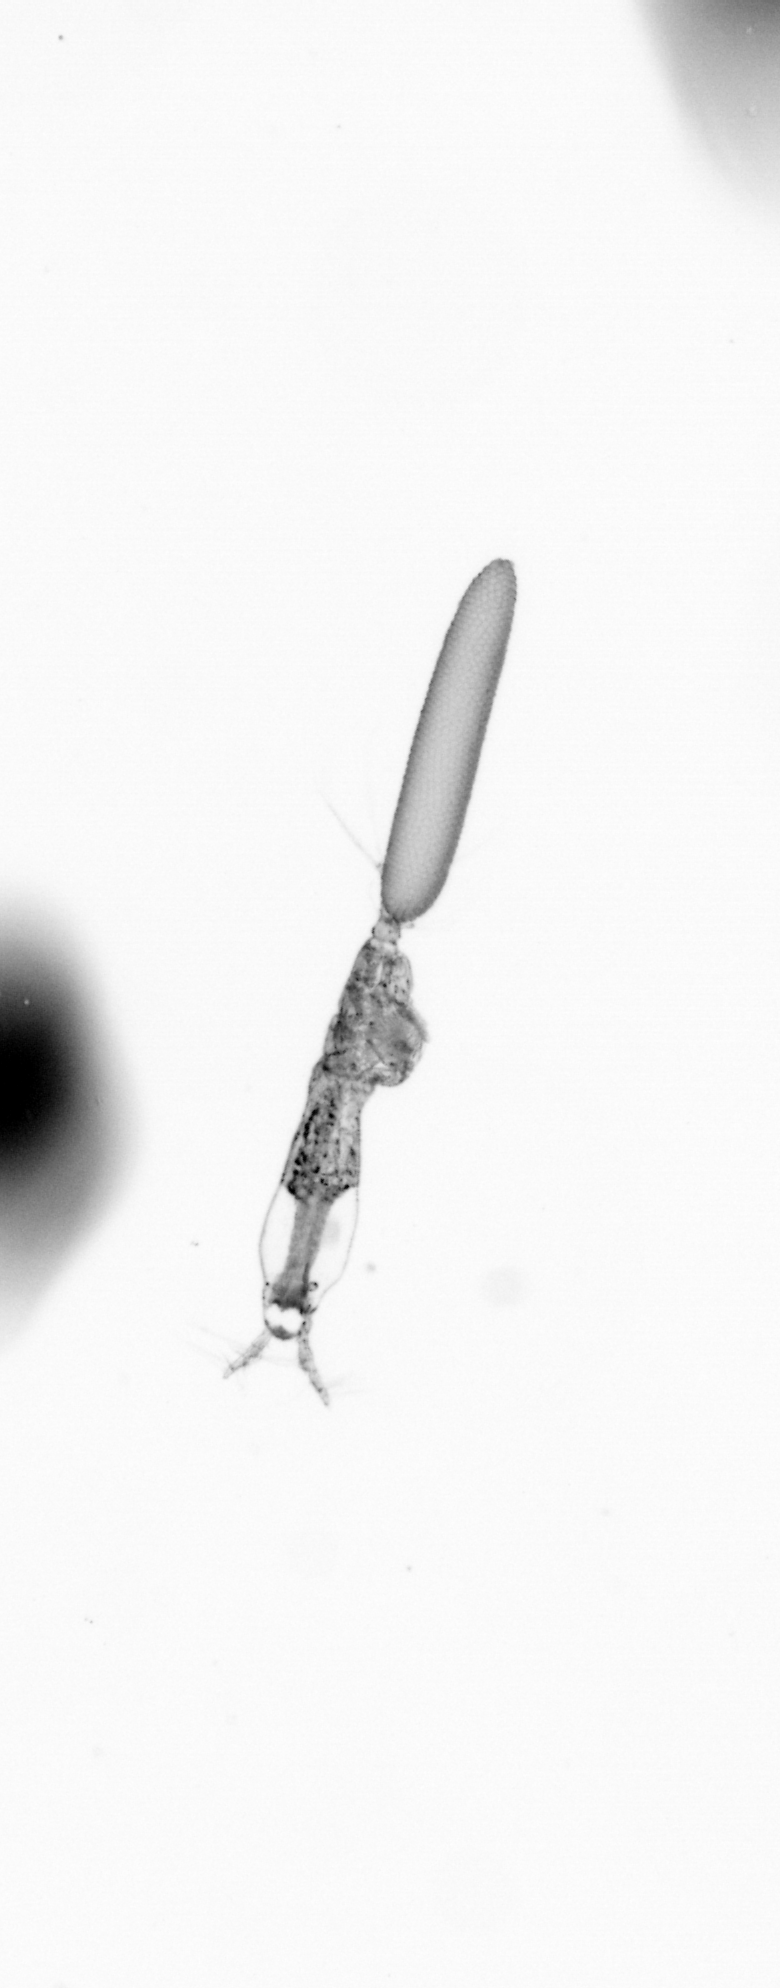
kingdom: Animalia
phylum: Arthropoda
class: Copepoda
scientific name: Copepoda
